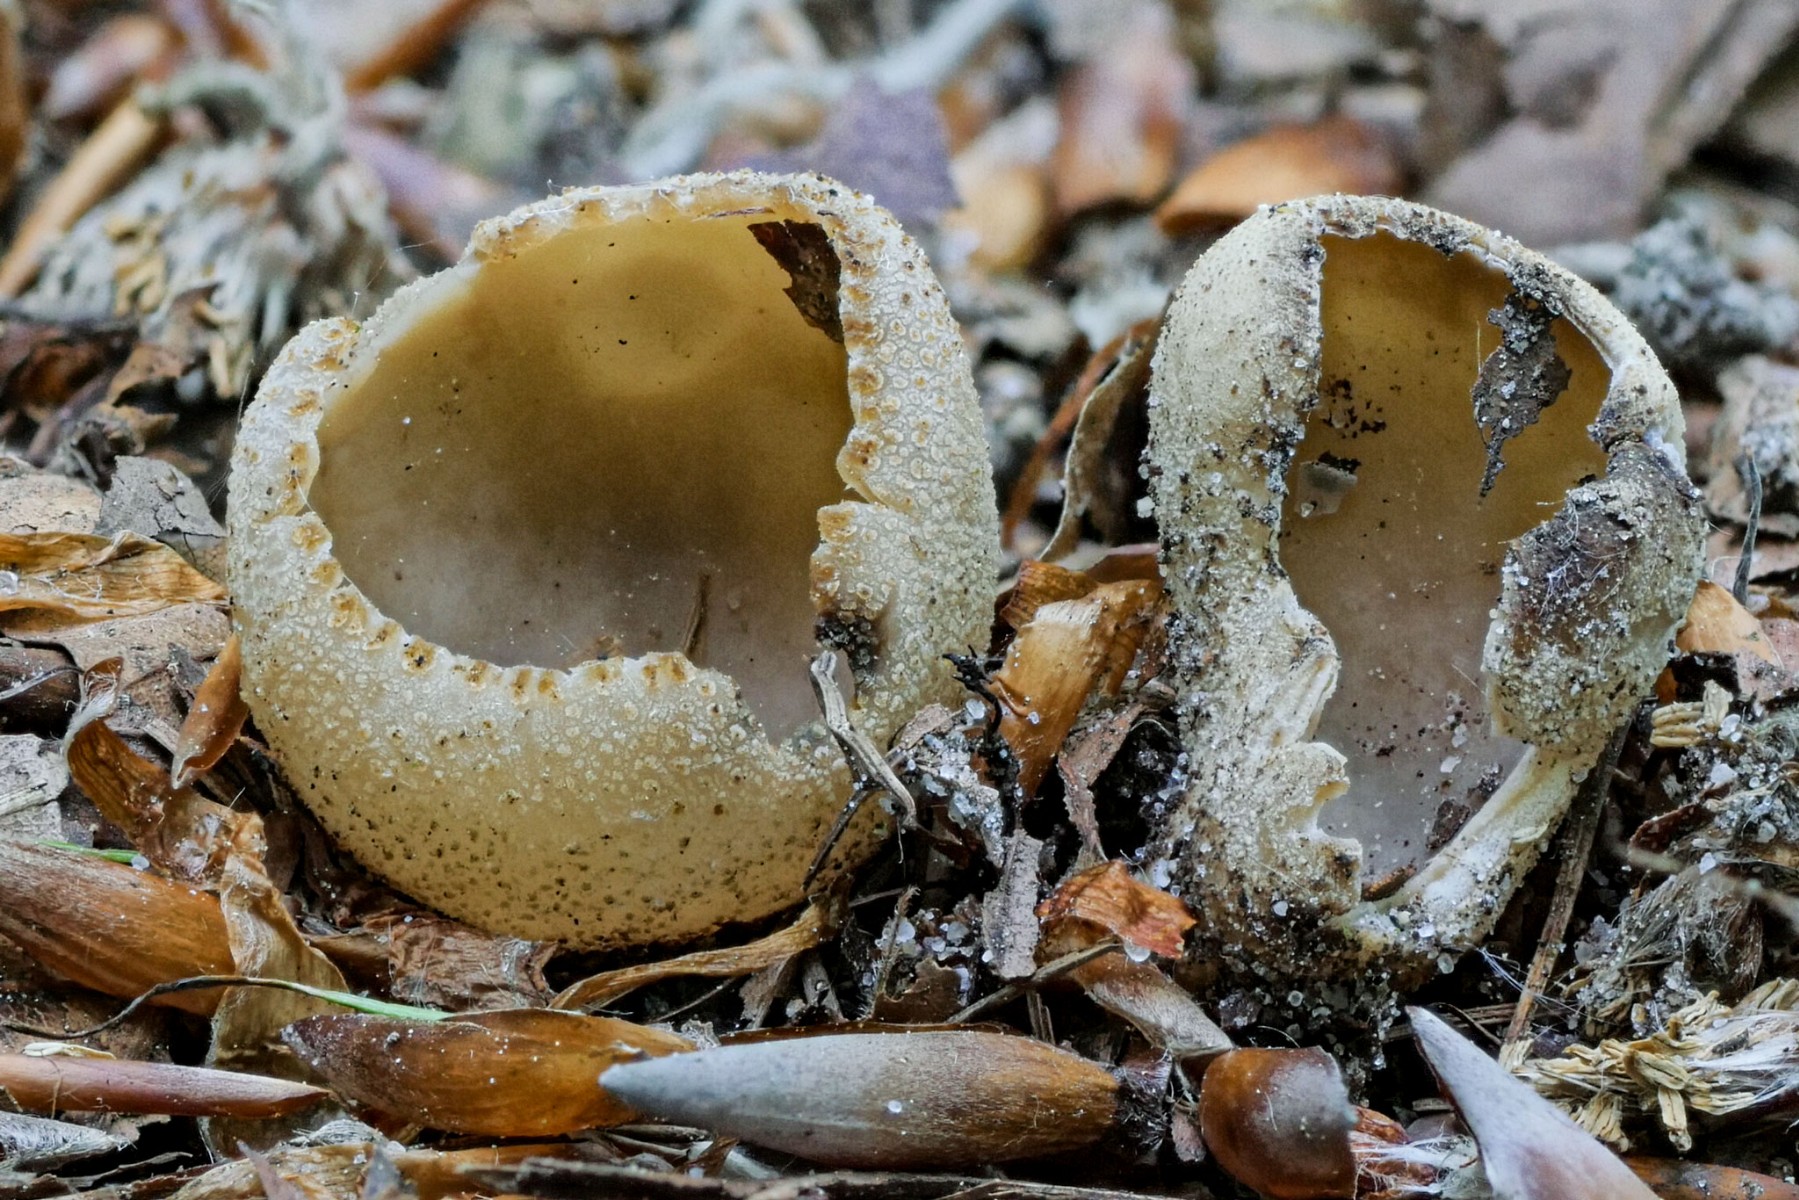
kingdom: Fungi
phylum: Ascomycota
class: Pezizomycetes
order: Pezizales
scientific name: Pezizales
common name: bægersvampordenen
